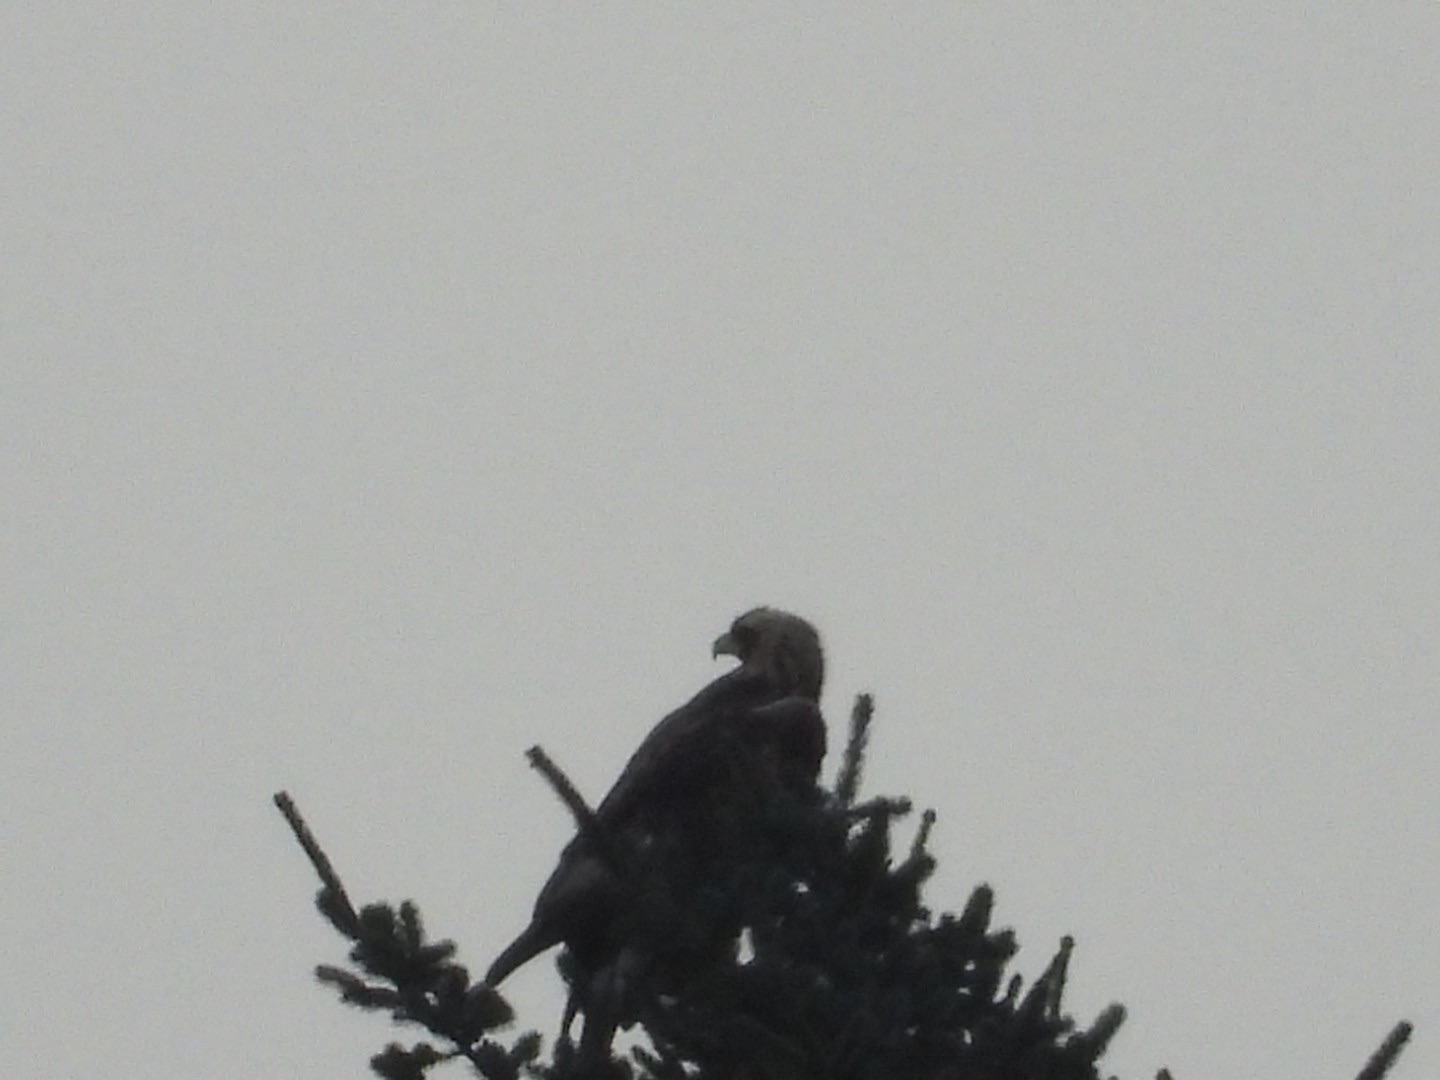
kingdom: Animalia
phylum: Chordata
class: Aves
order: Accipitriformes
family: Accipitridae
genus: Aquila
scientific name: Aquila chrysaetos
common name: Kongeørn
